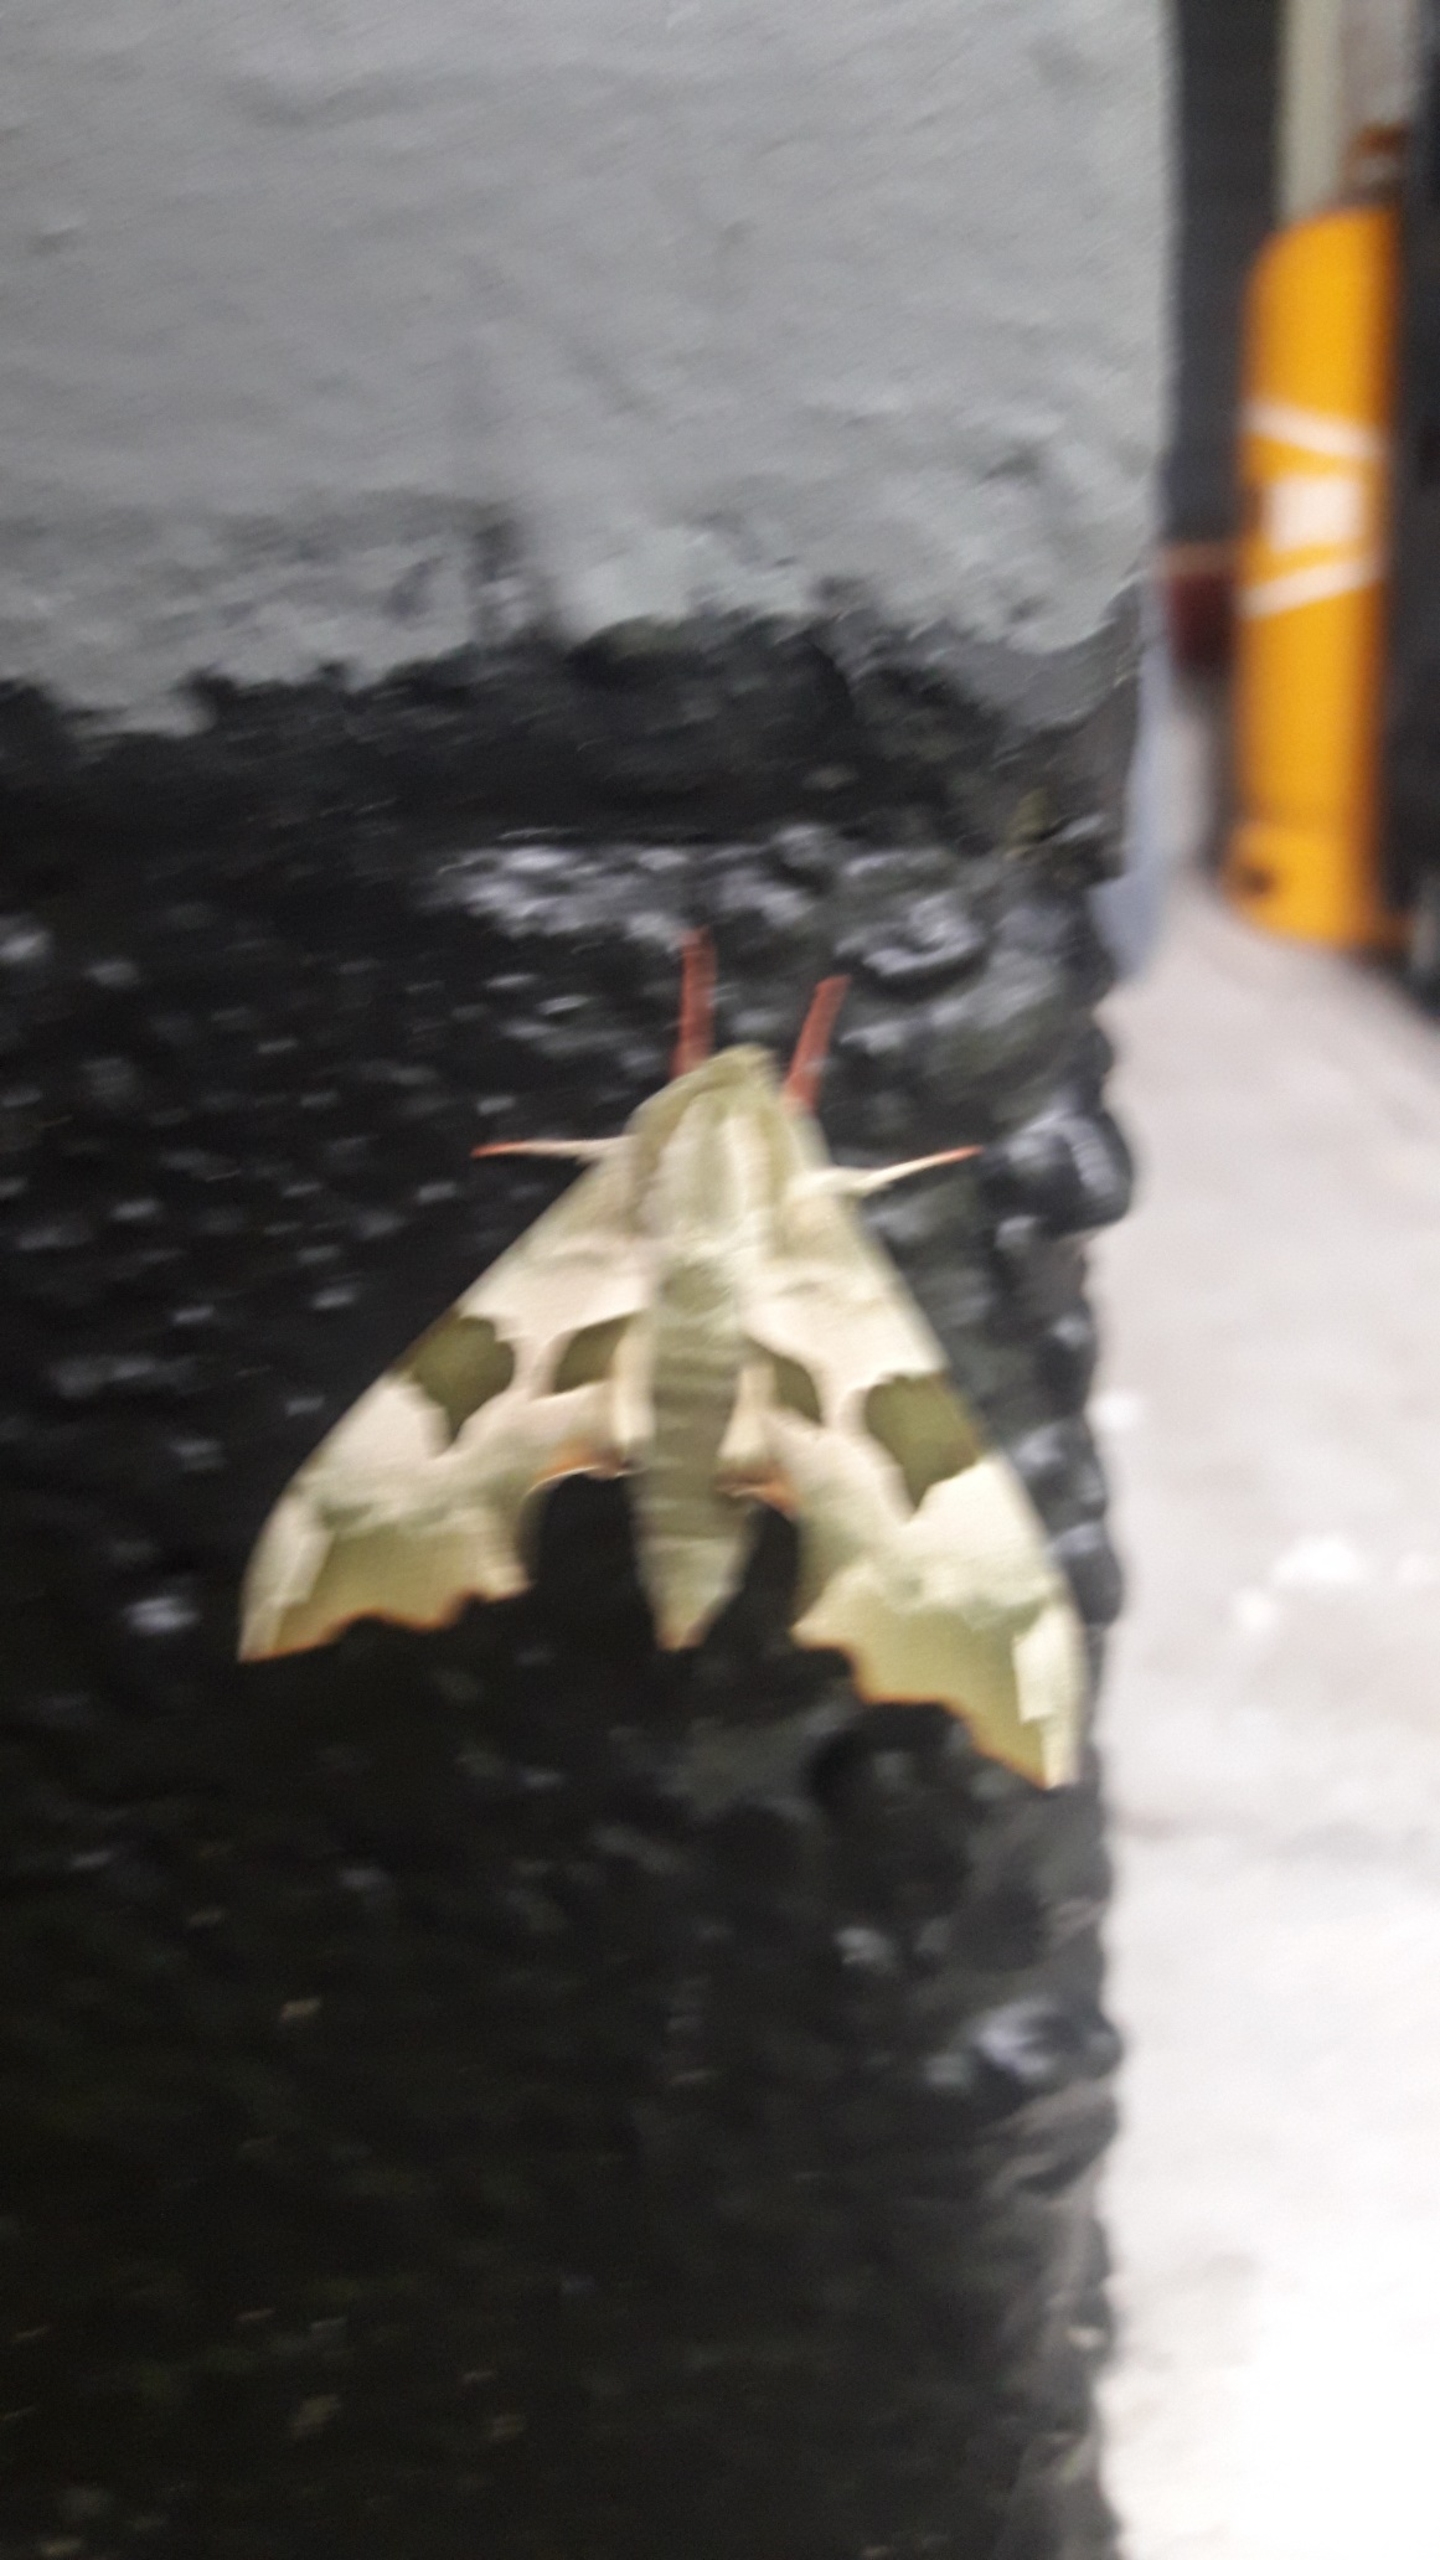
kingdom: Animalia
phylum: Arthropoda
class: Insecta
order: Lepidoptera
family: Sphingidae
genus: Mimas
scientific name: Mimas tiliae
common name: Lindesværmer
